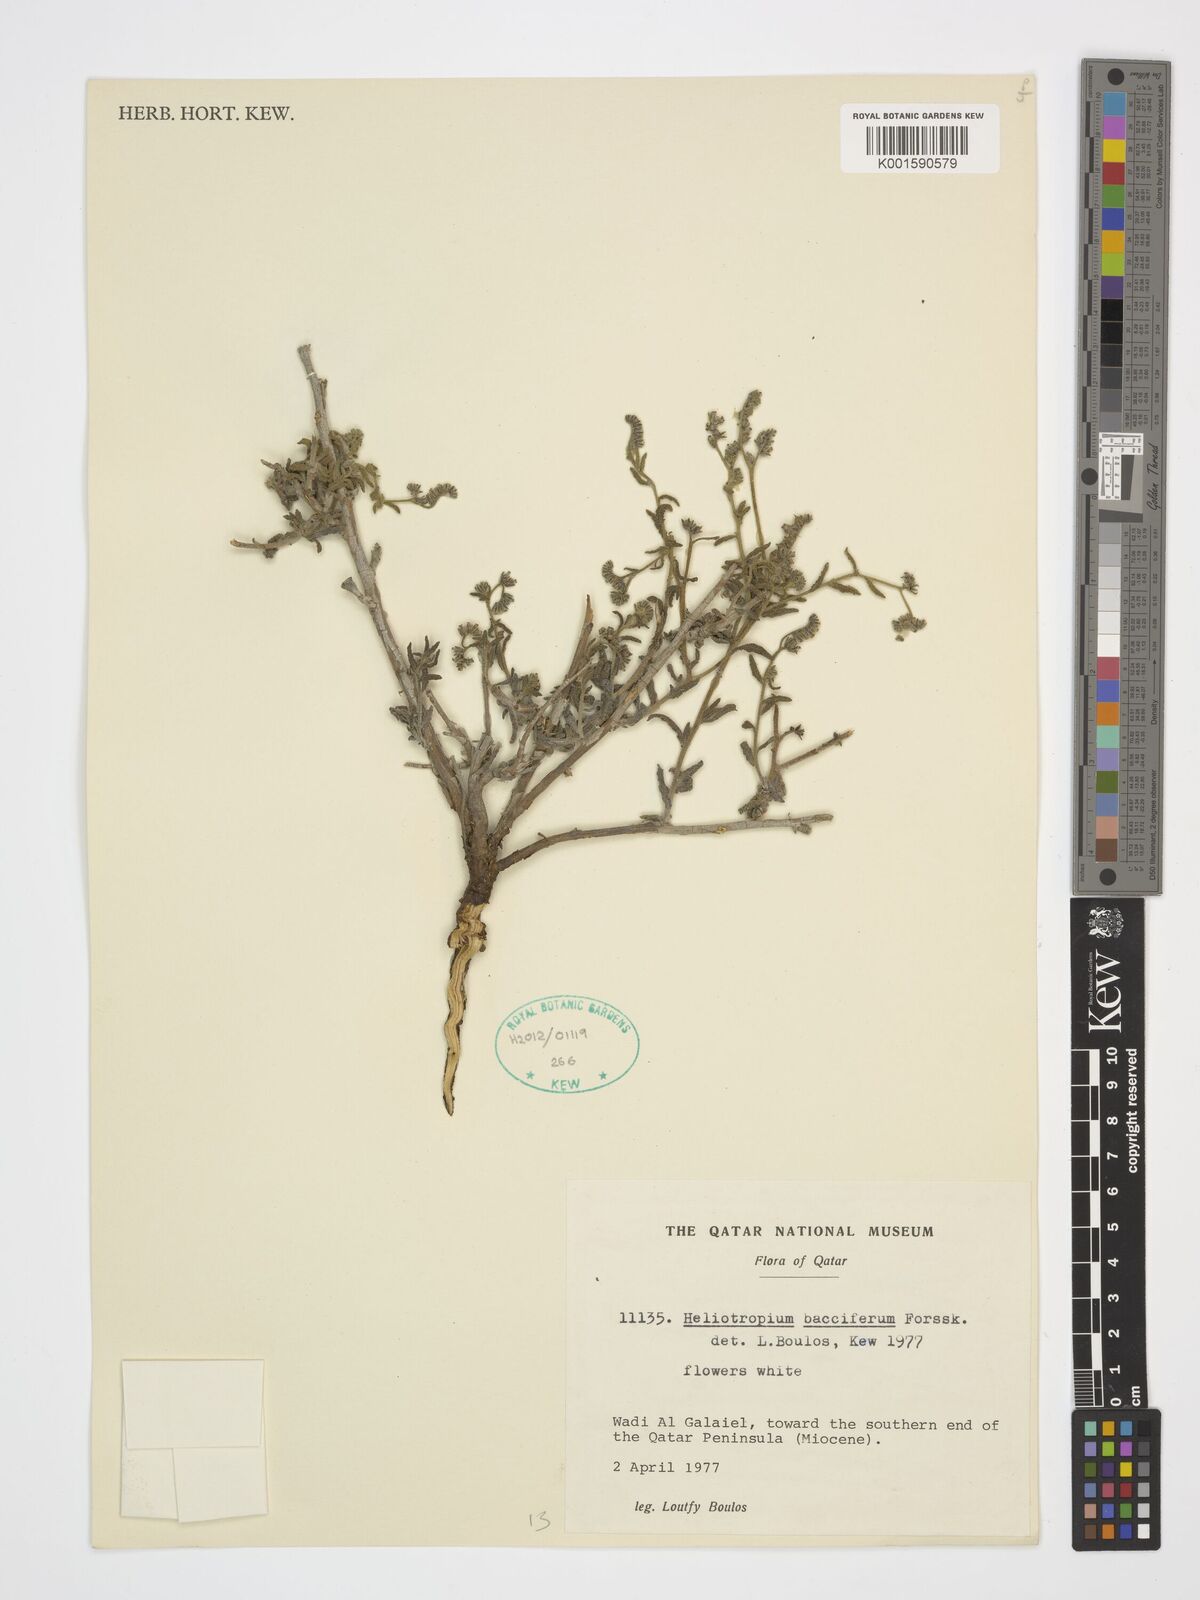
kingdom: Plantae
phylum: Tracheophyta
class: Magnoliopsida
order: Boraginales
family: Heliotropiaceae
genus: Heliotropium
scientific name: Heliotropium bacciferum
